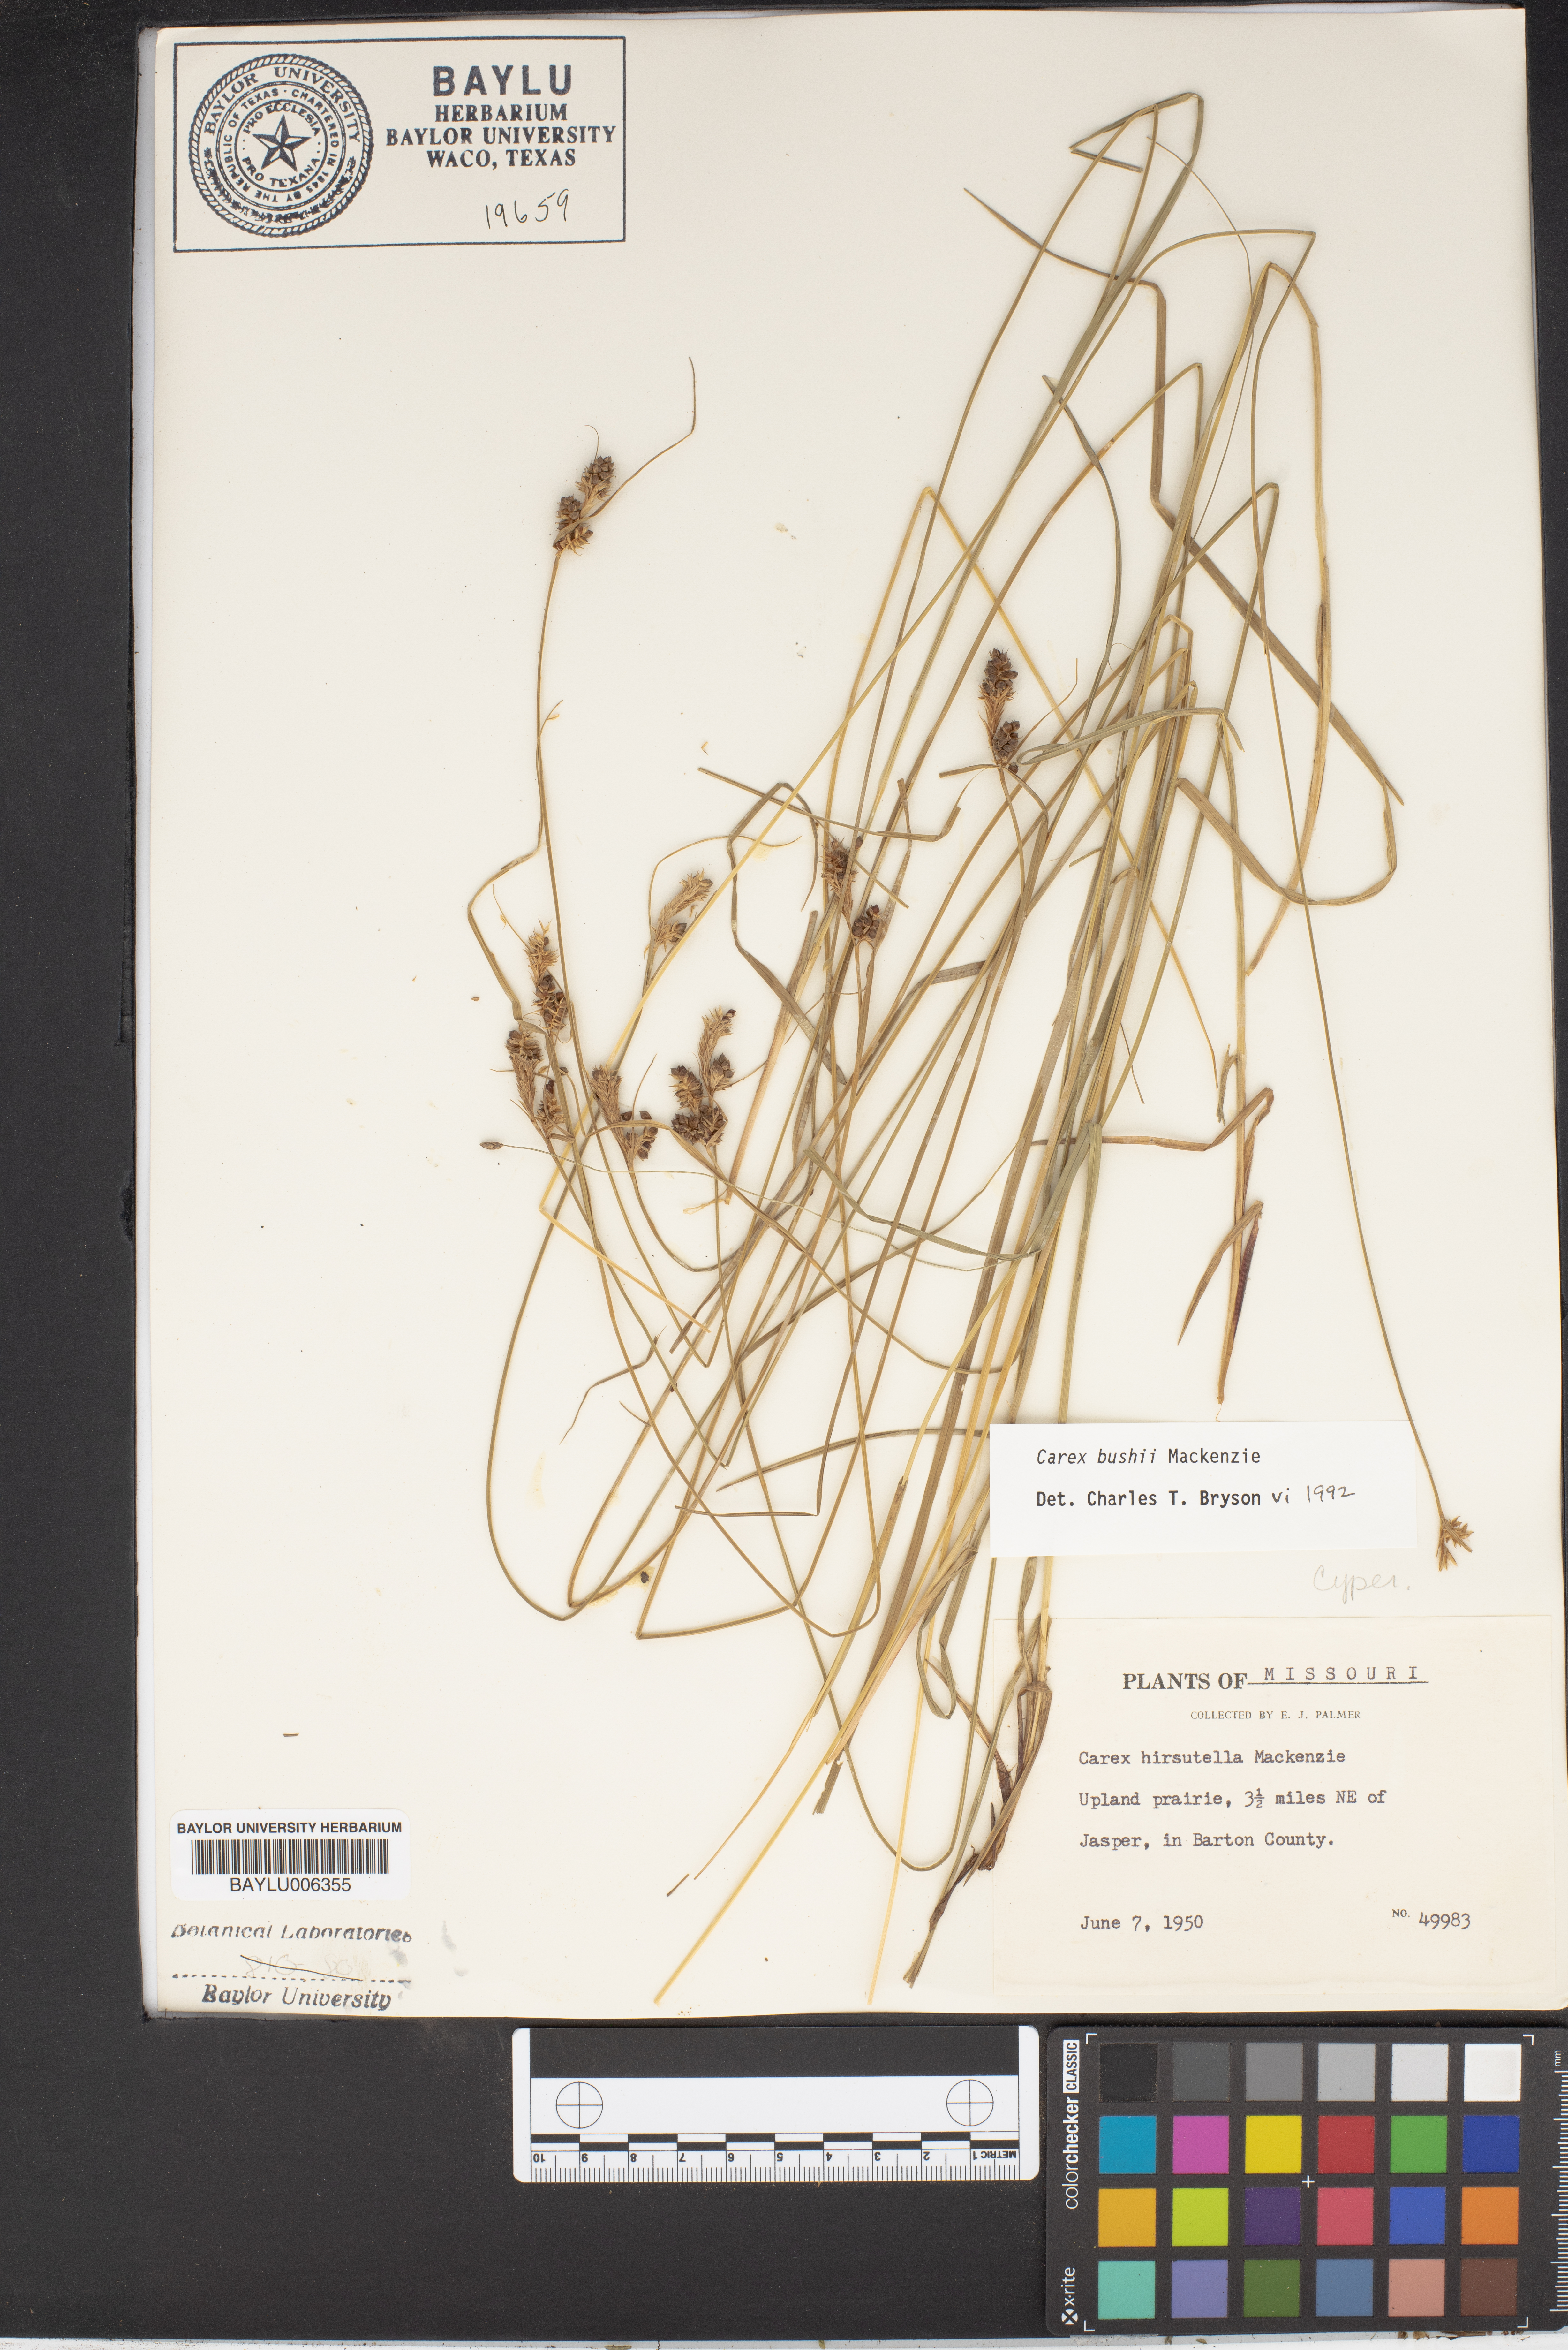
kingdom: Plantae
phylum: Tracheophyta
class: Liliopsida
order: Poales
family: Cyperaceae
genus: Carex
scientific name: Carex bushii
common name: Bush's sedge
